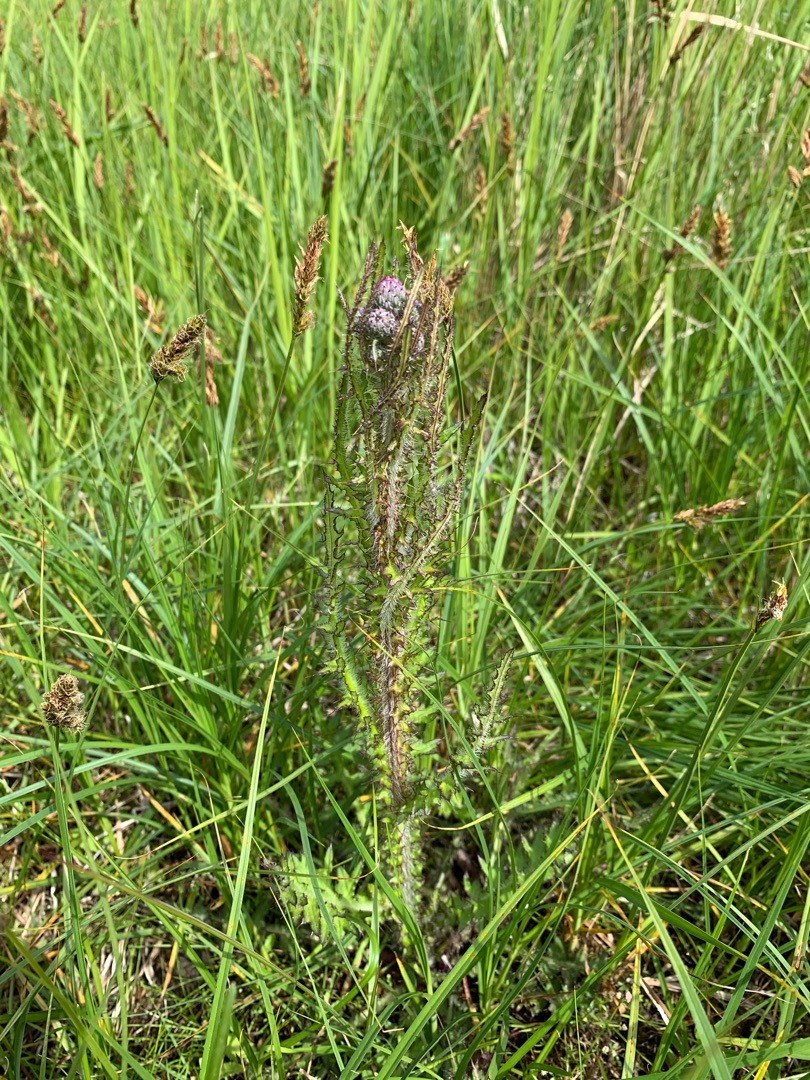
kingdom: Plantae
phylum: Tracheophyta
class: Magnoliopsida
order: Asterales
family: Asteraceae
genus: Cirsium
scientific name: Cirsium palustre
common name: Kær-tidsel
